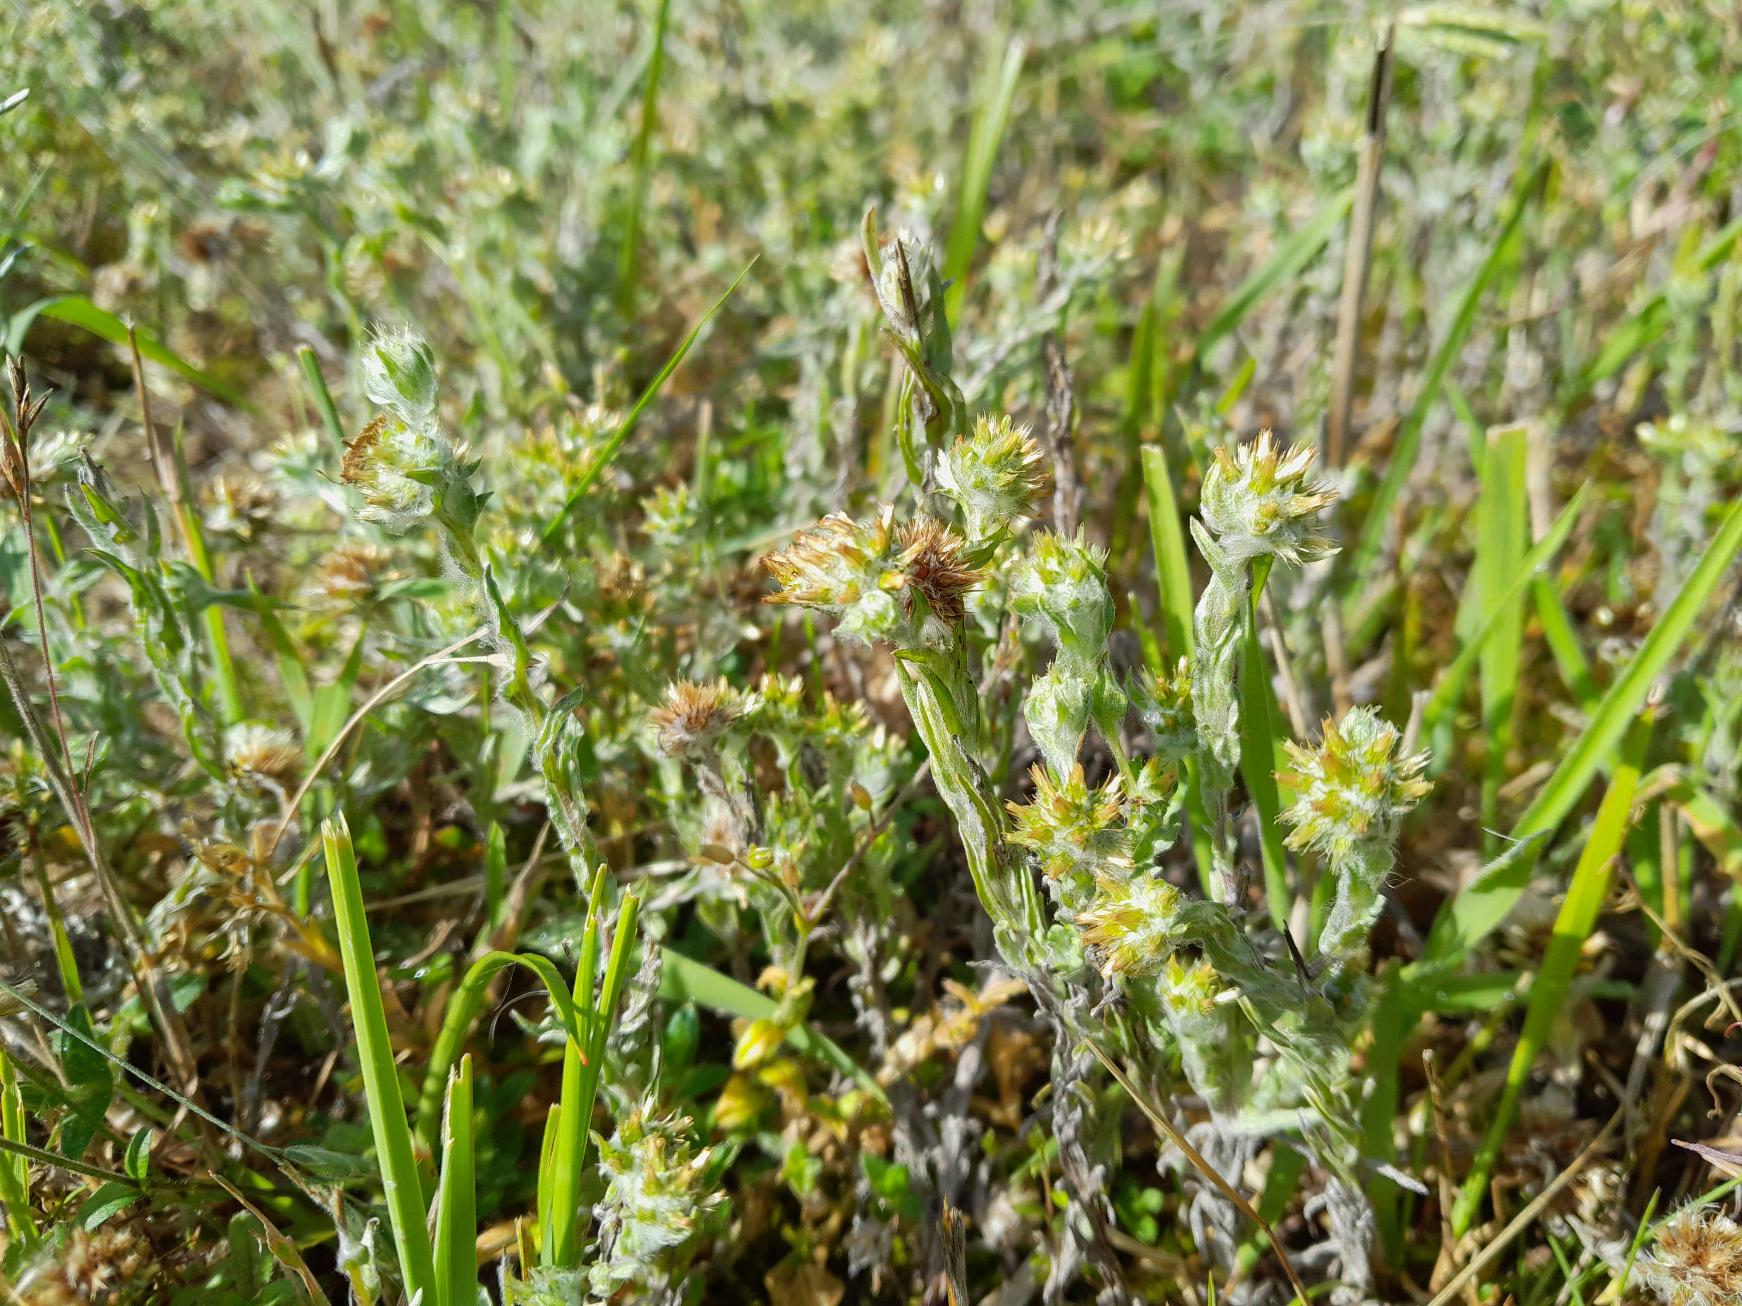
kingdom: Plantae
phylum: Tracheophyta
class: Magnoliopsida
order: Asterales
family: Asteraceae
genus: Filago
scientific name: Filago germanica
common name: Kugle-museurt
